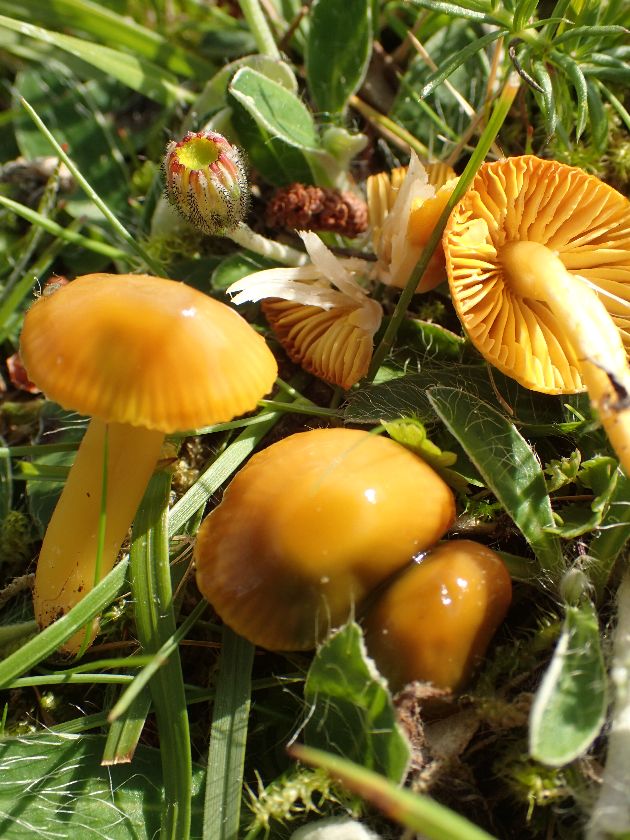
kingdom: Fungi
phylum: Basidiomycota
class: Agaricomycetes
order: Agaricales
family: Hygrophoraceae
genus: Gliophorus
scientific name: Gliophorus psittacinus
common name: papegøje-vokshat
